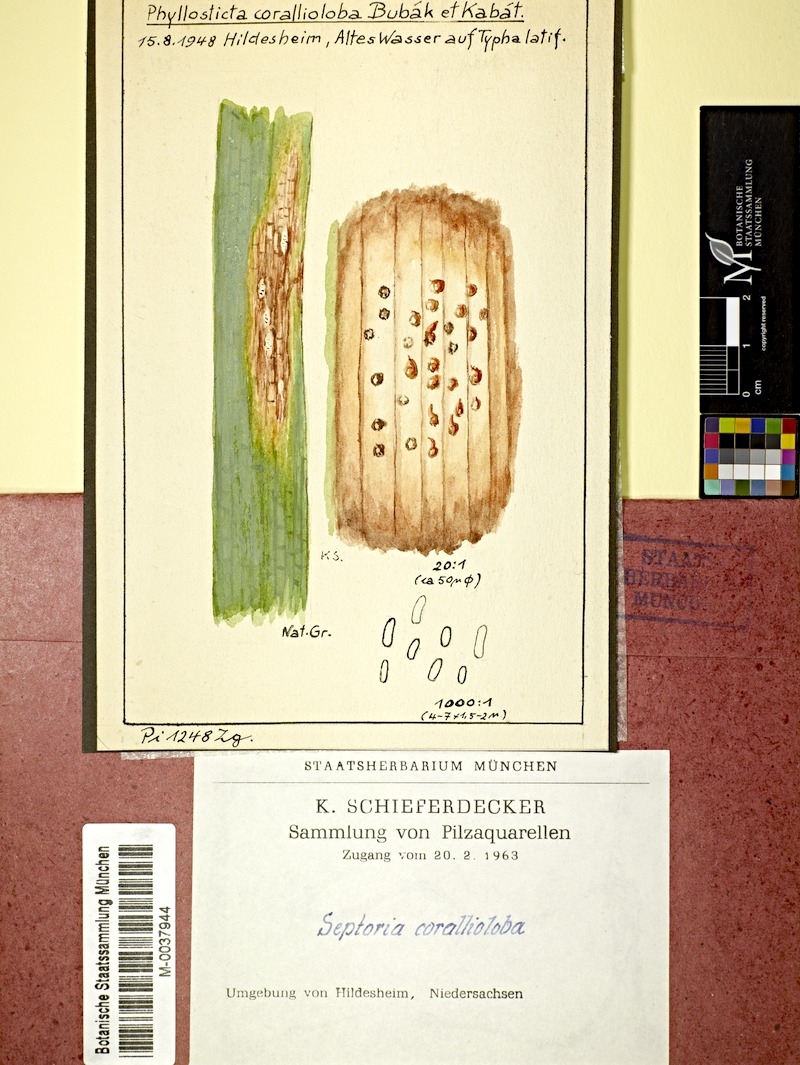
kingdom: Plantae
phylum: Tracheophyta
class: Liliopsida
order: Poales
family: Typhaceae
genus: Typha
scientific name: Typha latifolia
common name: Broadleaf cattail
